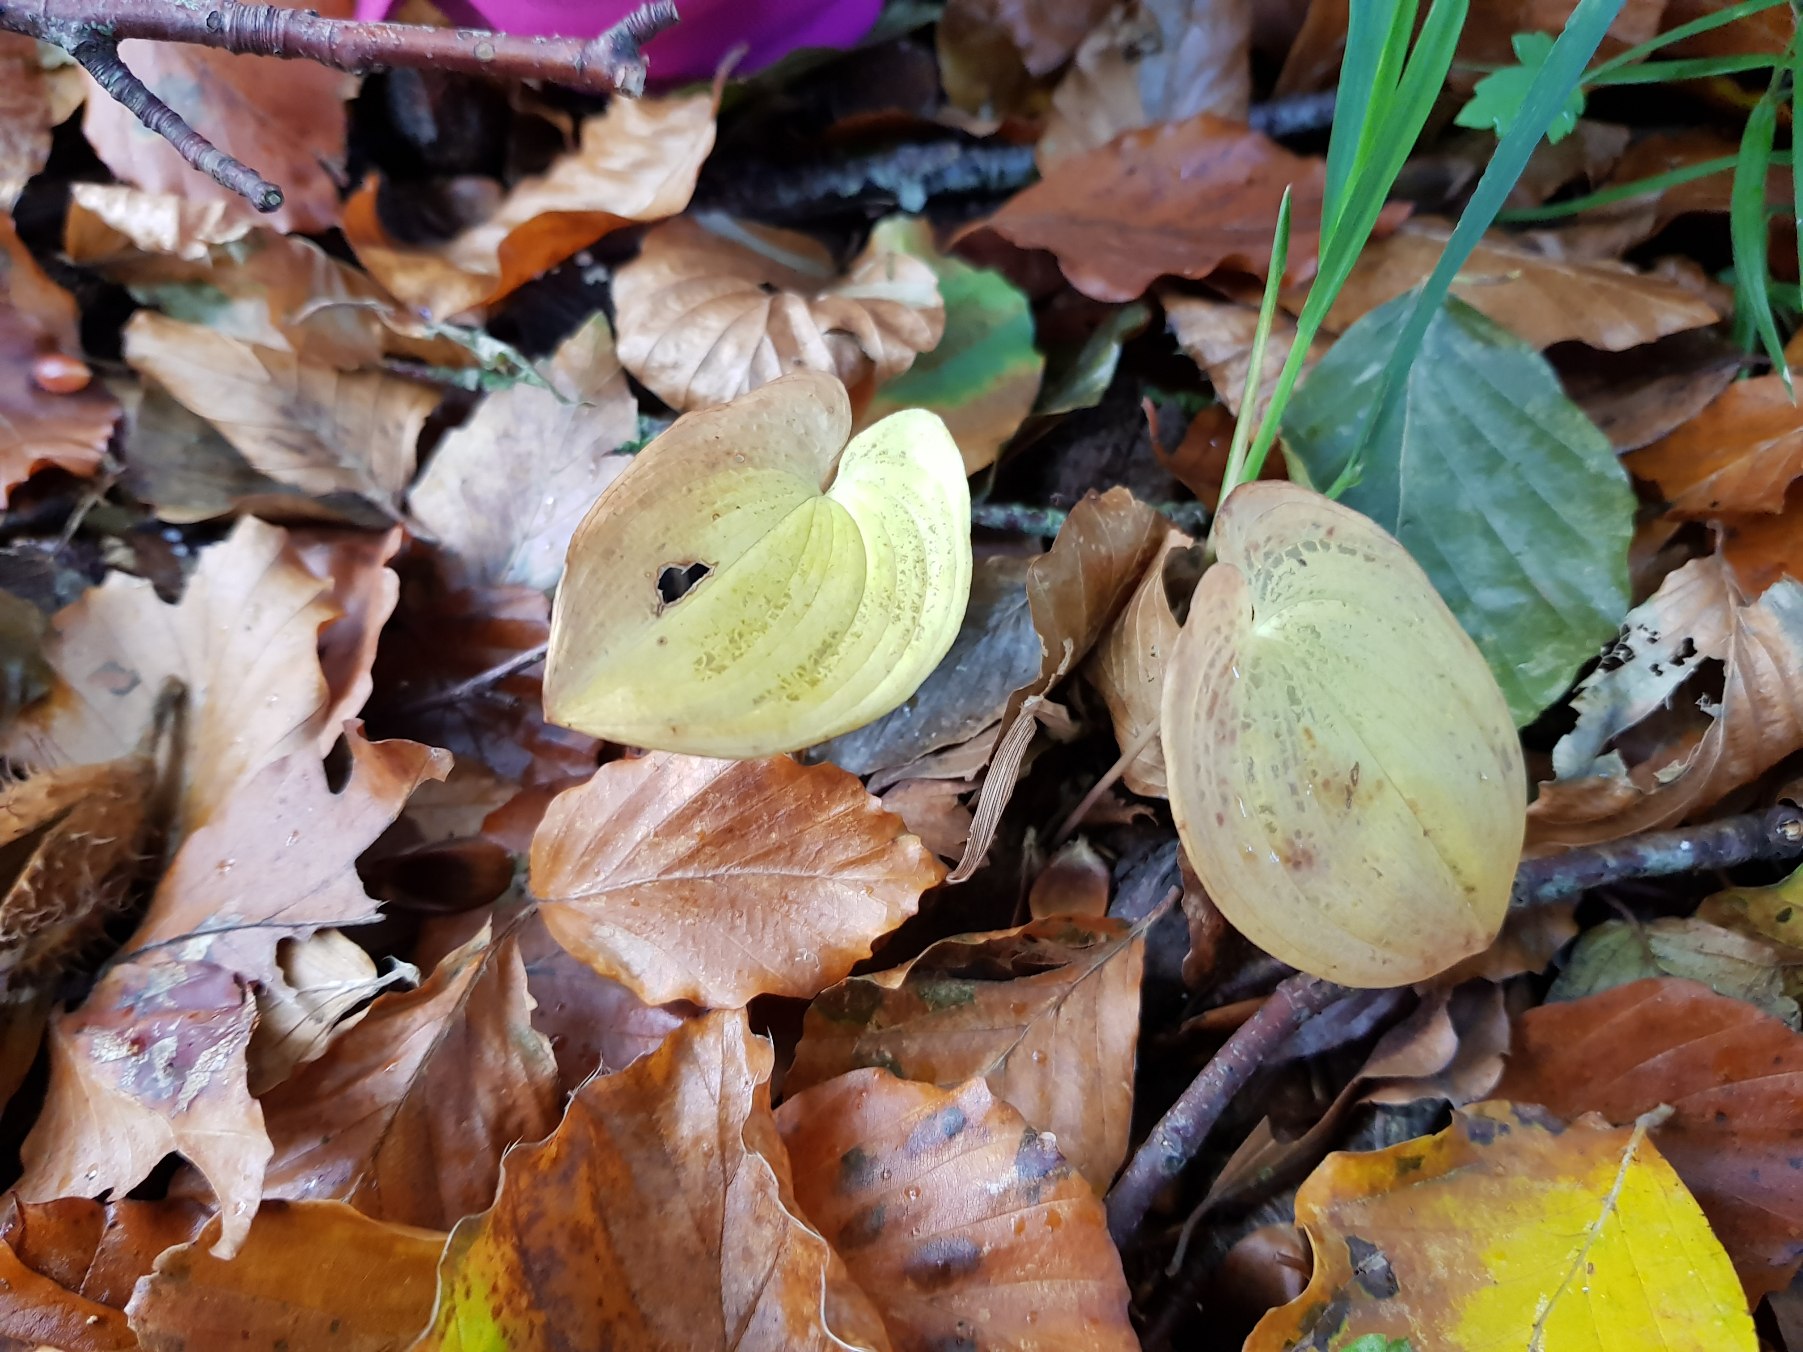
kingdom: Plantae
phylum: Tracheophyta
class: Liliopsida
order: Asparagales
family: Asparagaceae
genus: Maianthemum
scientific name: Maianthemum bifolium
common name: Majblomst
